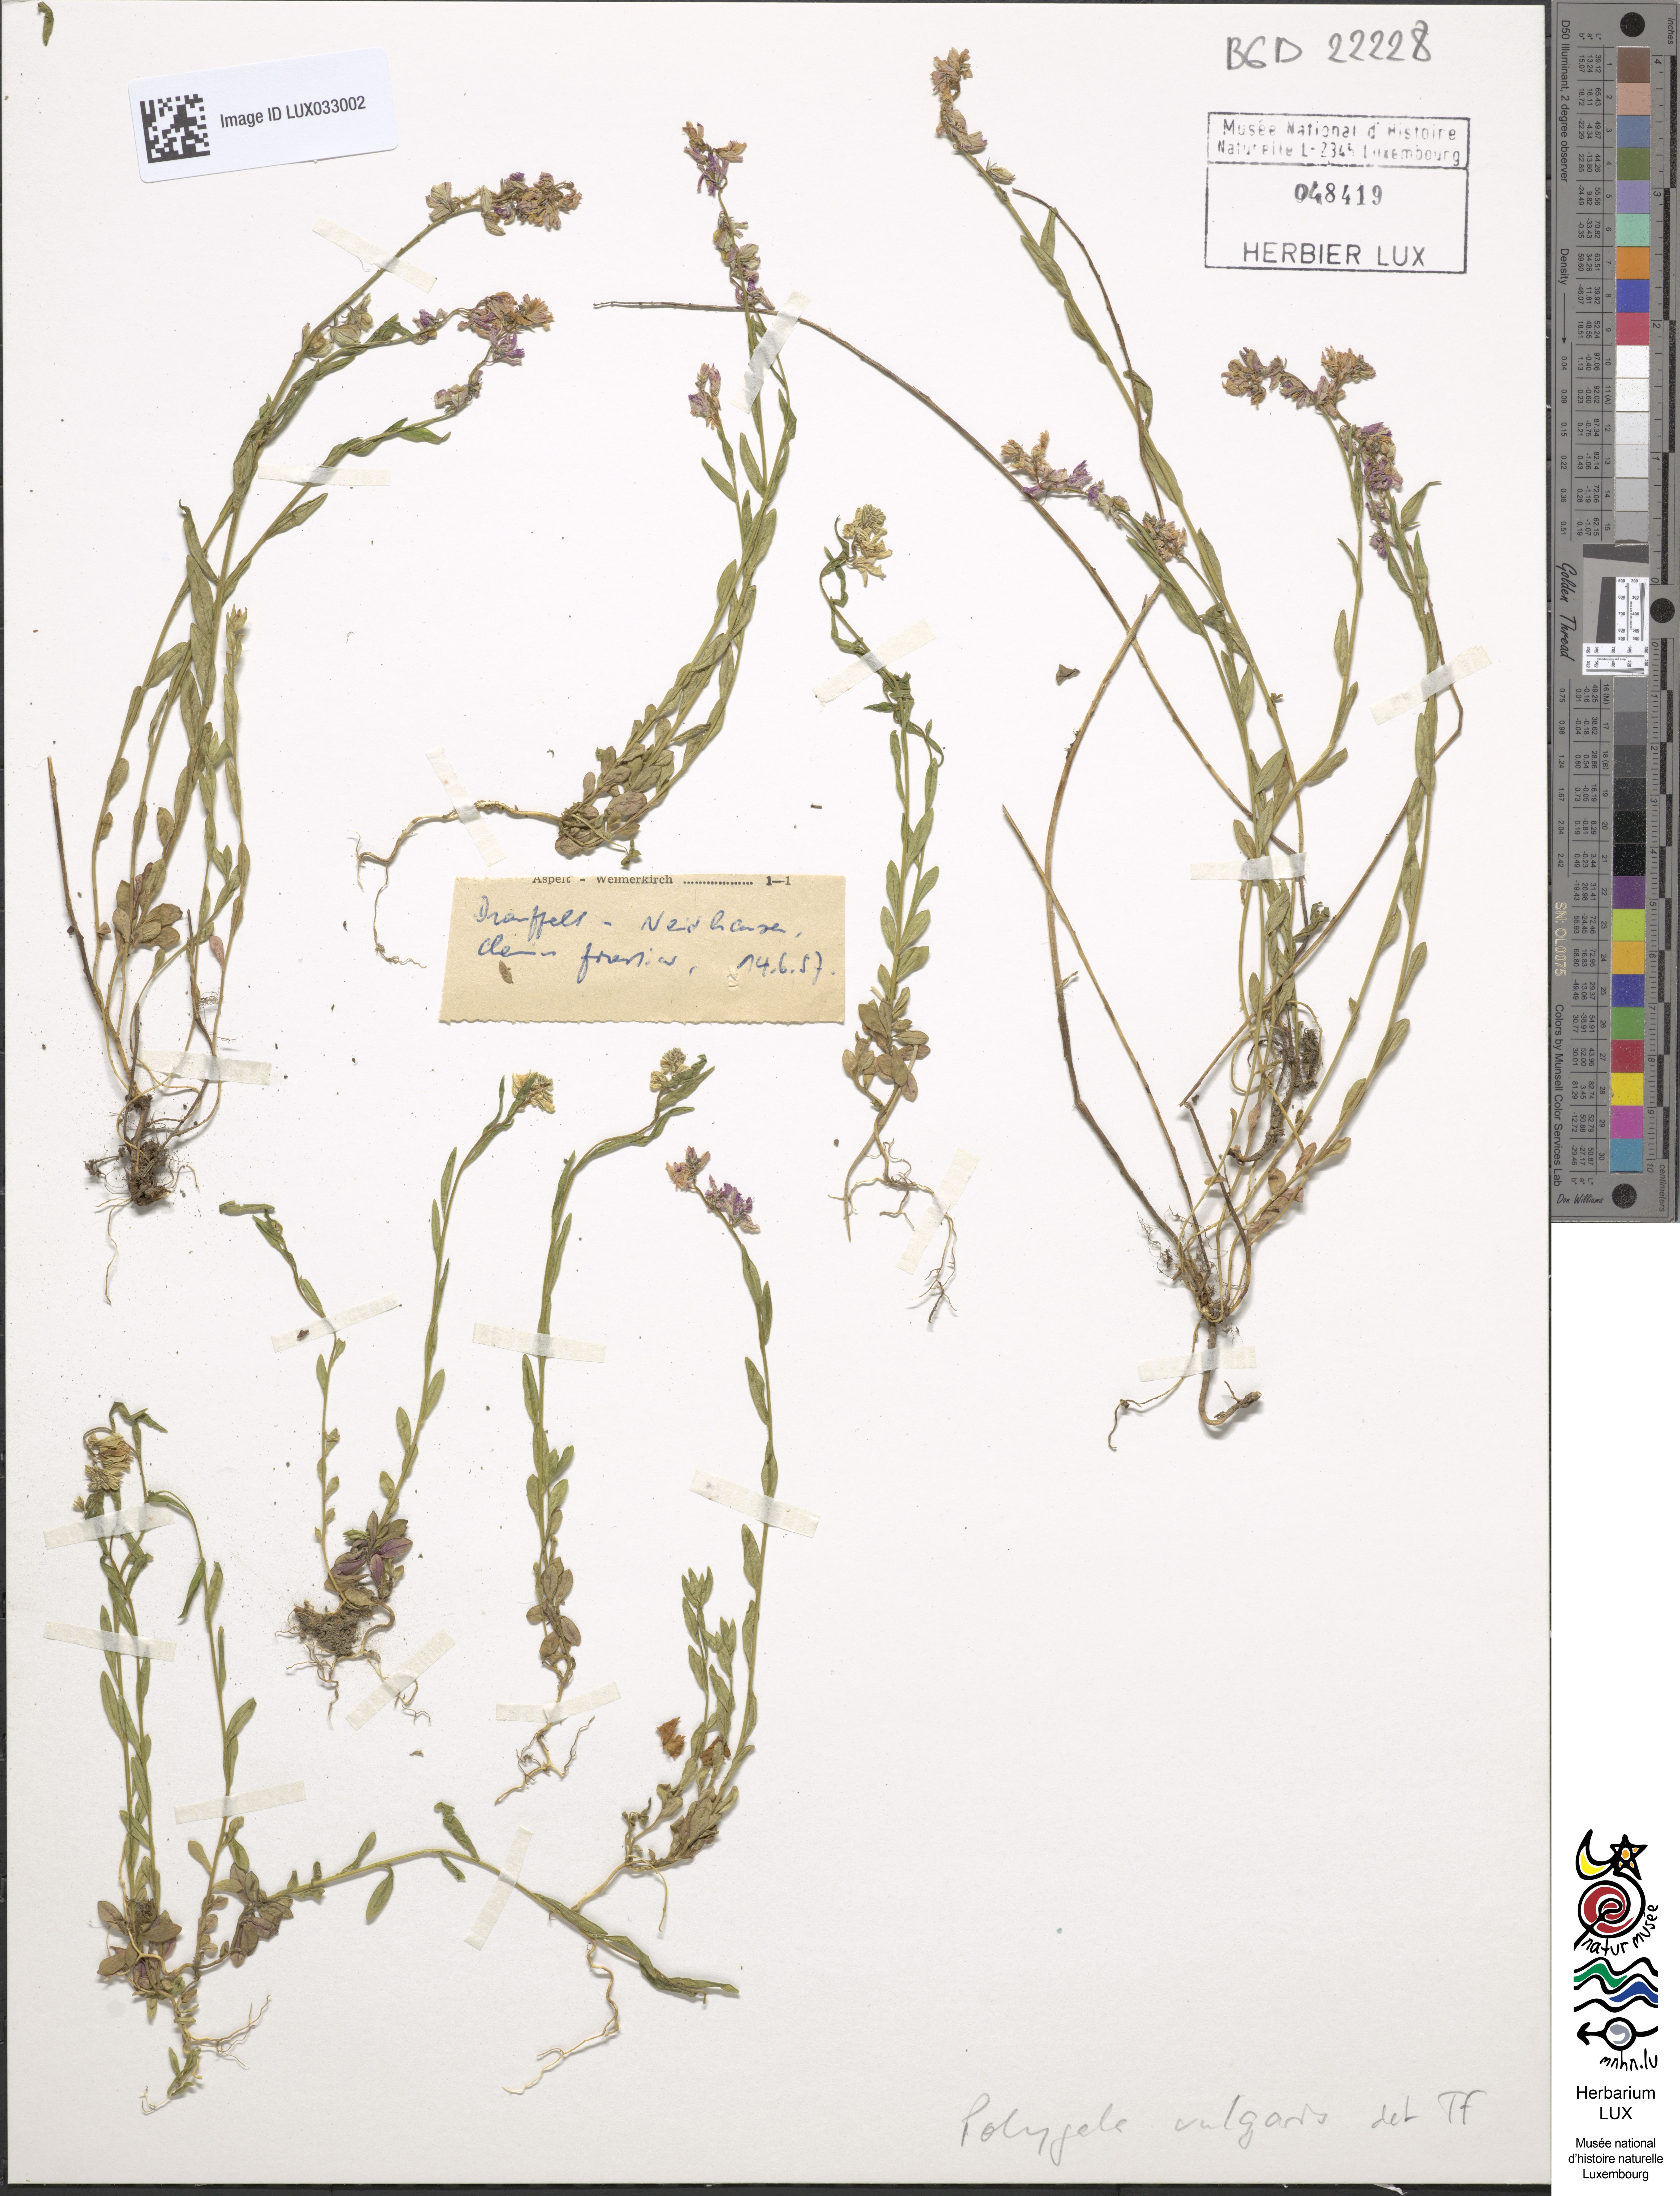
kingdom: Plantae
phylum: Tracheophyta
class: Magnoliopsida
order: Fabales
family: Polygalaceae
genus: Polygala
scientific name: Polygala vulgaris
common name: Common milkwort
